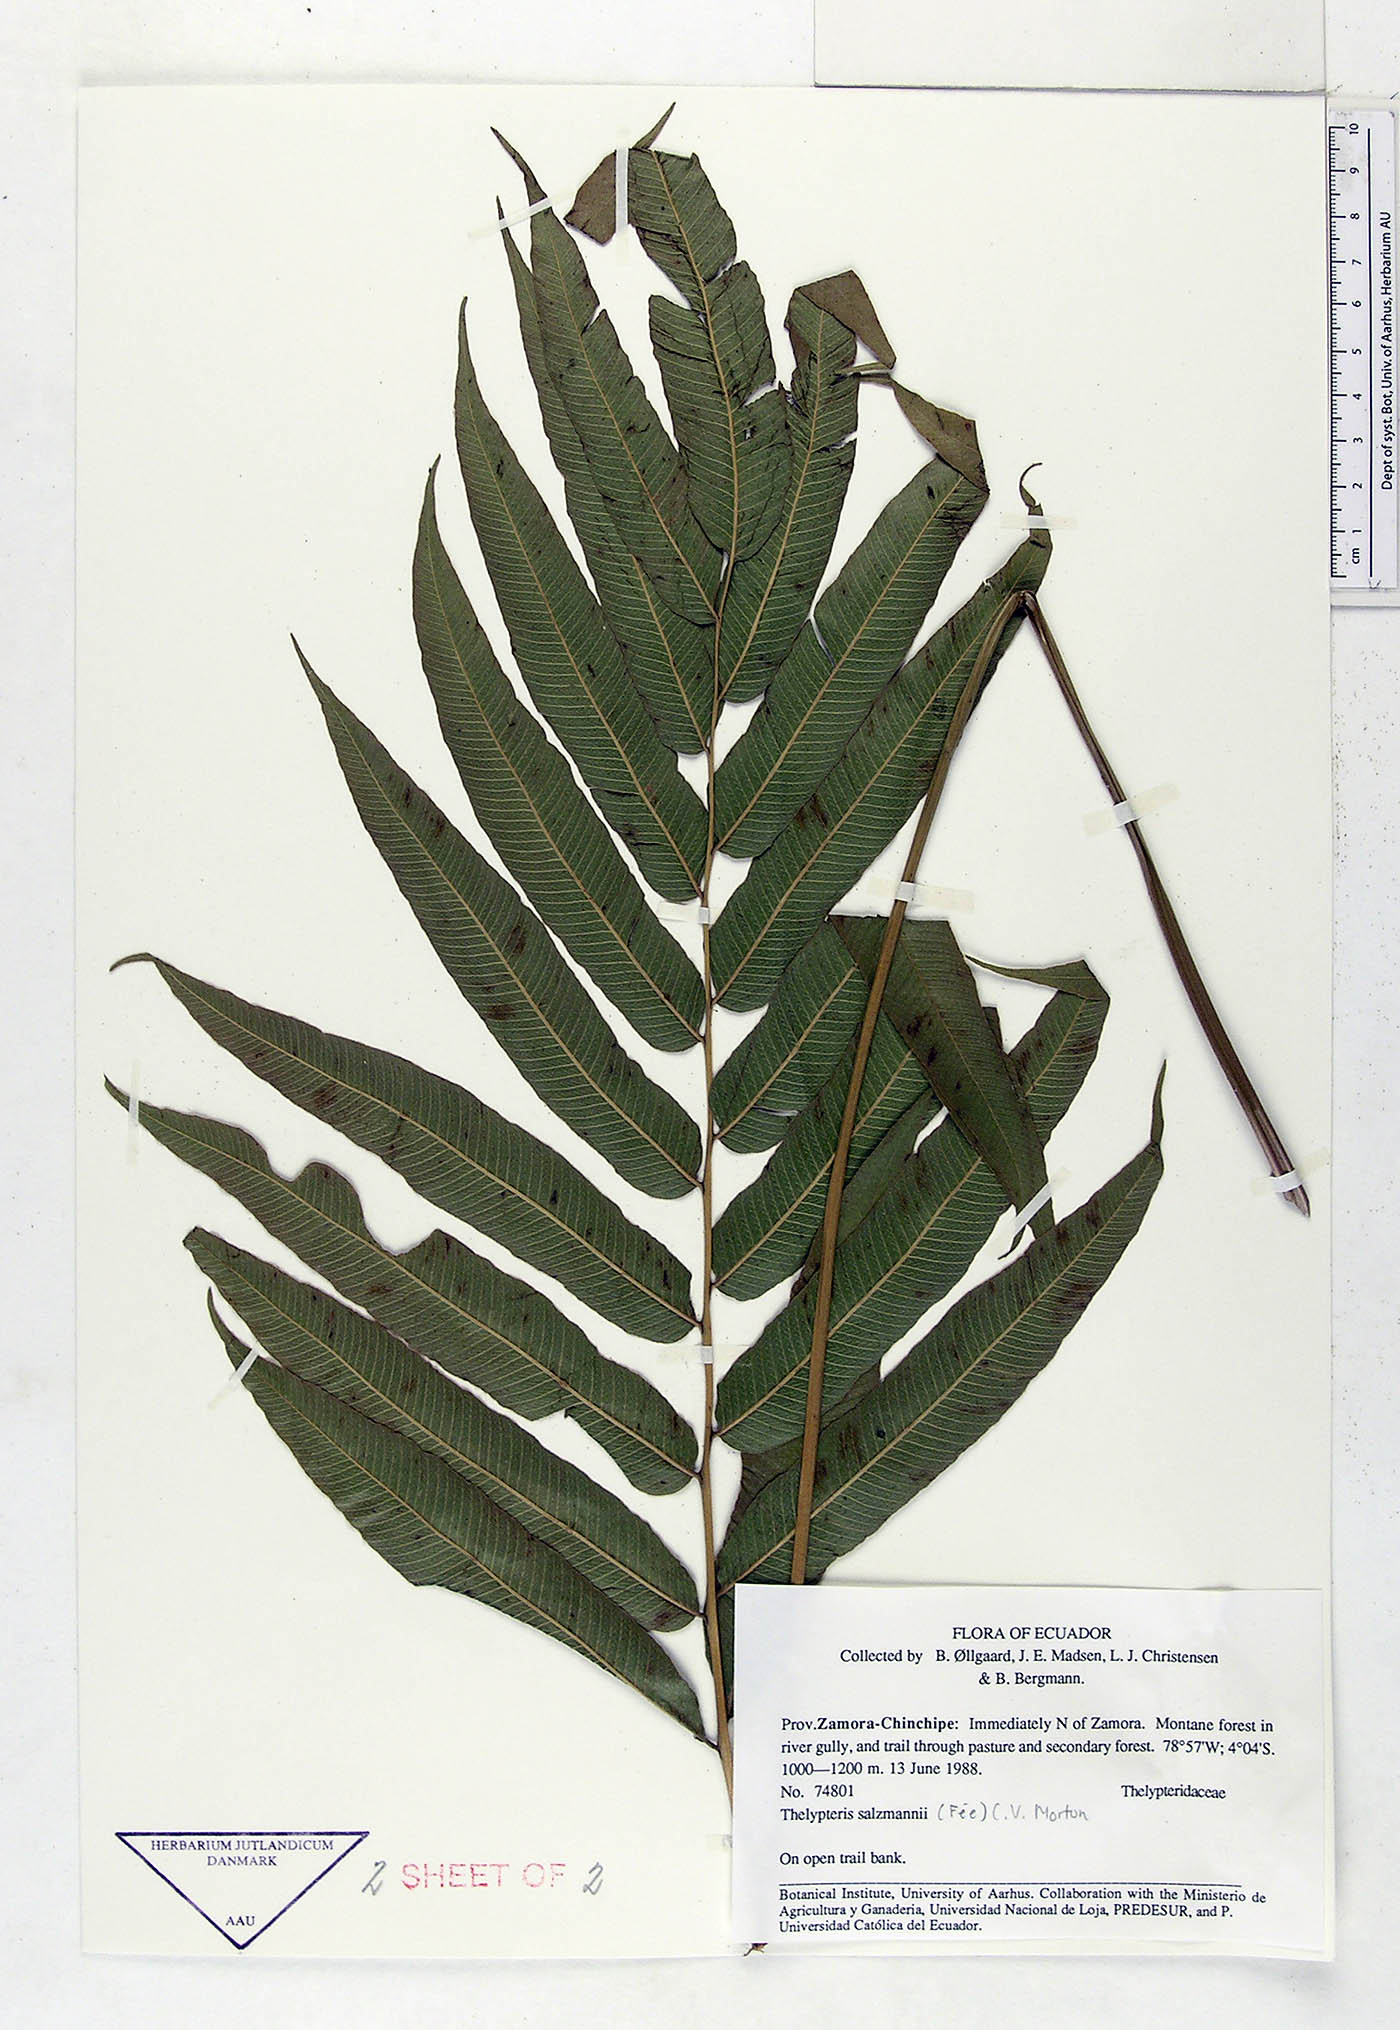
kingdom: Plantae
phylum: Tracheophyta
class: Polypodiopsida
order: Polypodiales
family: Thelypteridaceae
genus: Meniscium
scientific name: Meniscium arborescens
